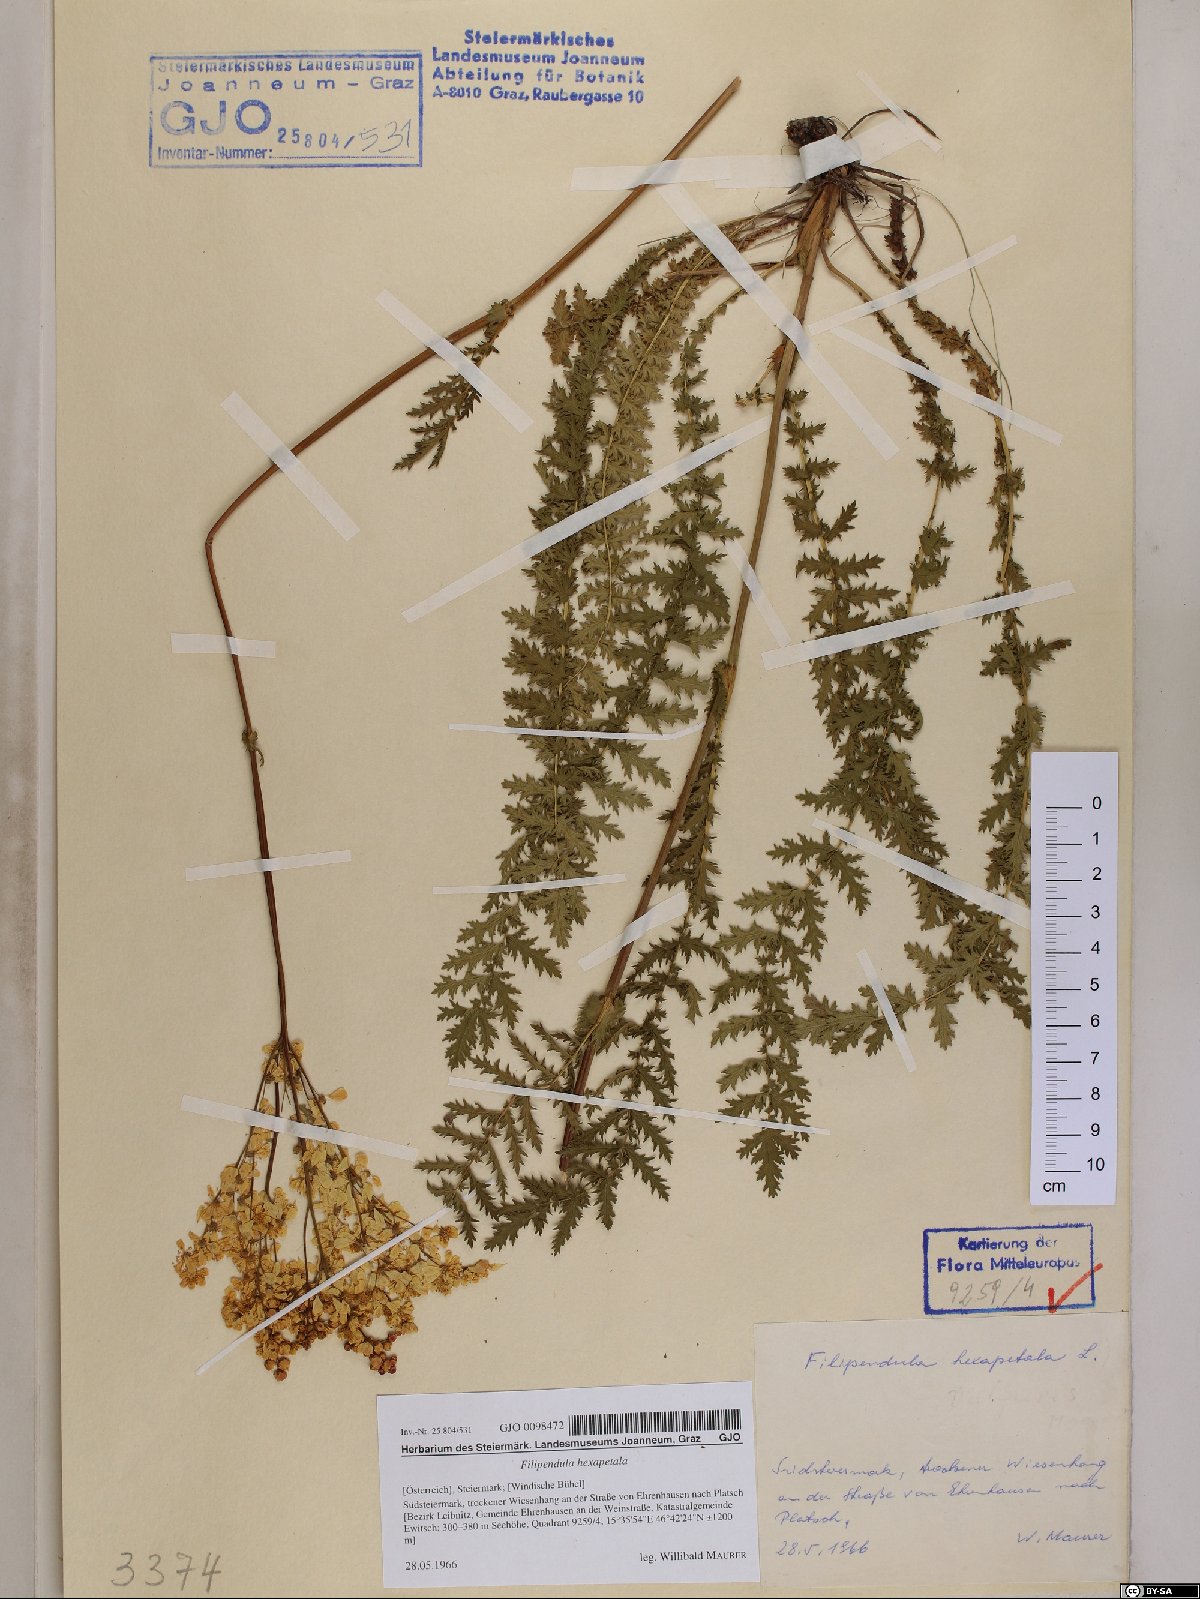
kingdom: Plantae
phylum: Tracheophyta
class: Magnoliopsida
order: Rosales
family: Rosaceae
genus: Filipendula
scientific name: Filipendula vulgaris
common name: Dropwort
